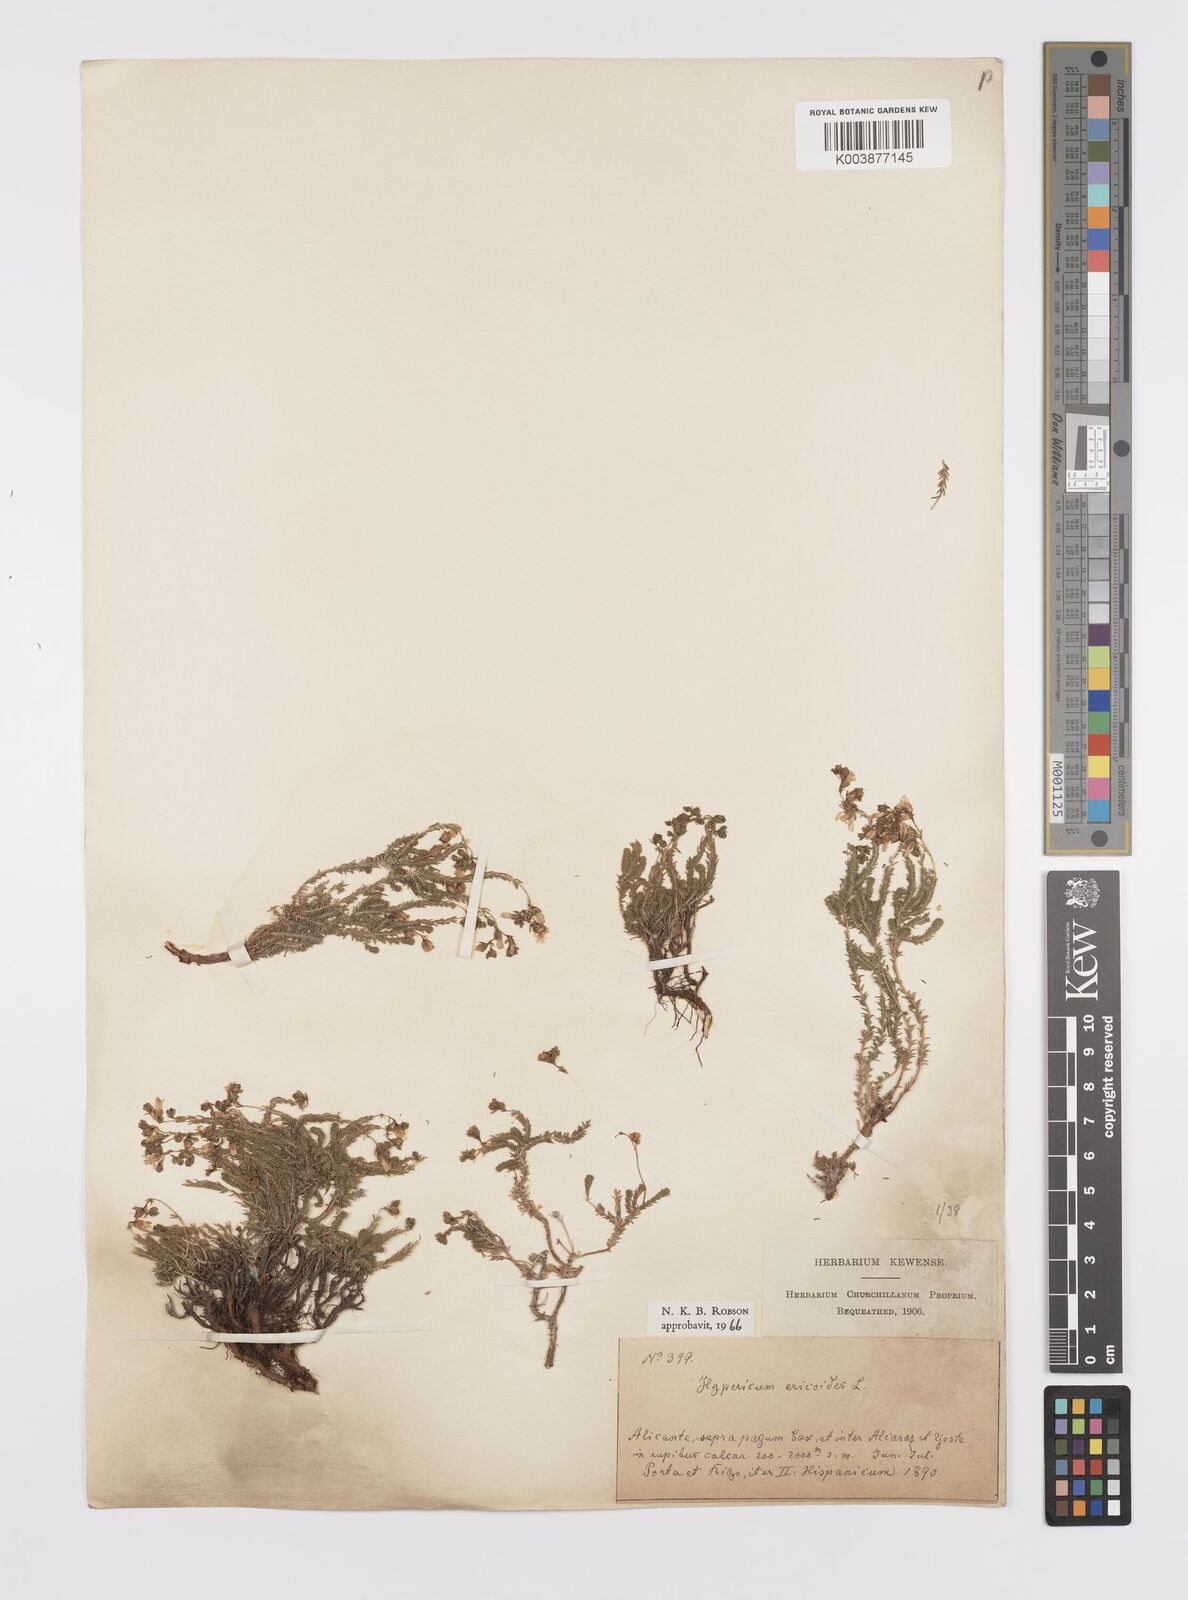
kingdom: Plantae
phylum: Tracheophyta
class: Magnoliopsida
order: Malpighiales
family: Hypericaceae
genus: Hypericum
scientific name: Hypericum ericoides
